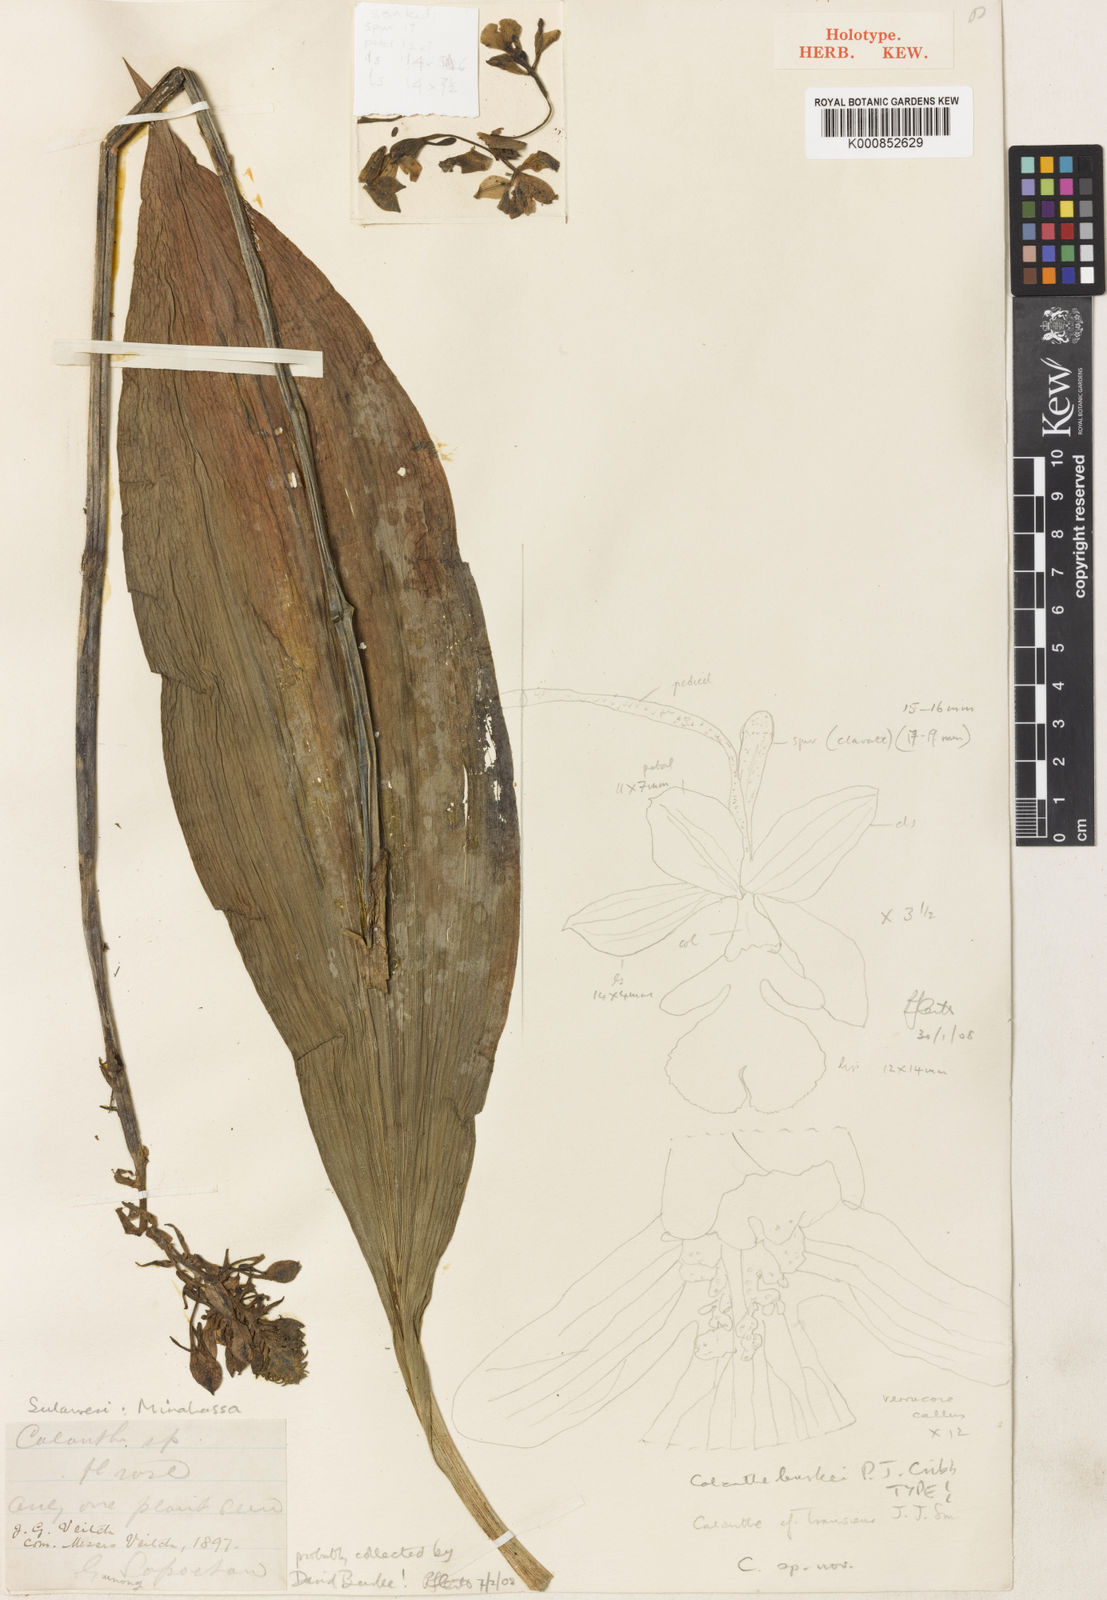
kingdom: Plantae
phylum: Tracheophyta
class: Liliopsida
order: Asparagales
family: Orchidaceae
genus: Calanthe
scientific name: Calanthe burkei
